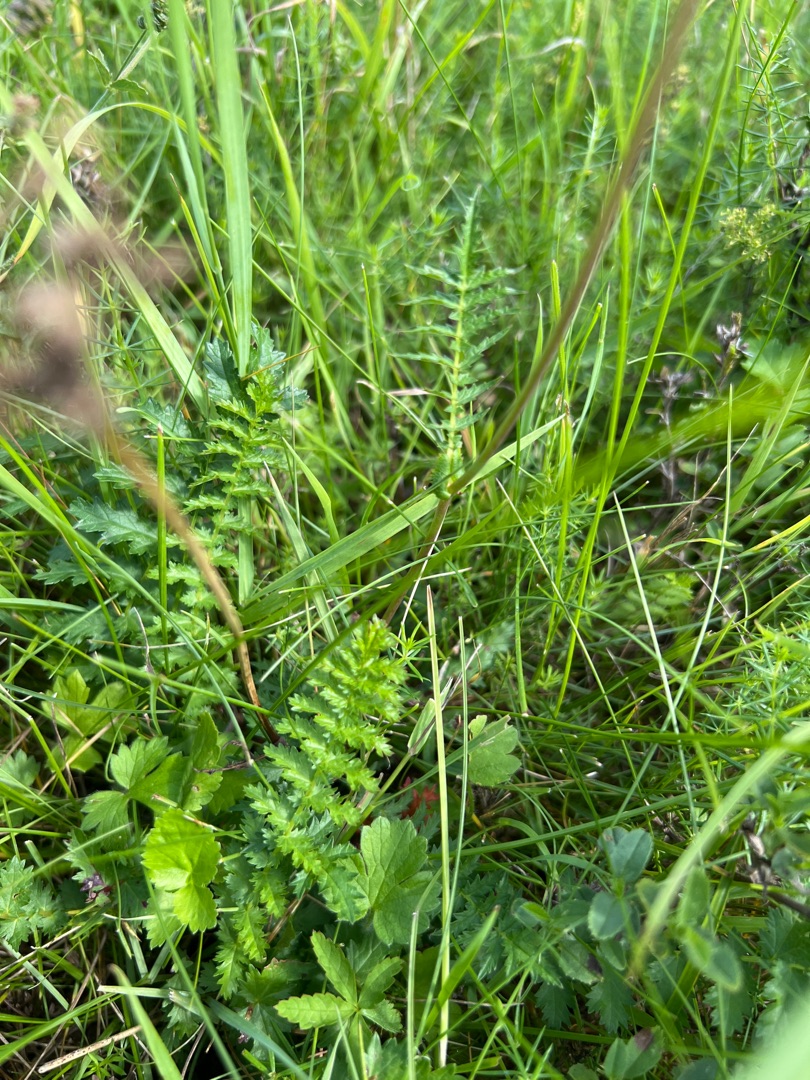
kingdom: Plantae
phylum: Tracheophyta
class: Magnoliopsida
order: Rosales
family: Rosaceae
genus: Filipendula
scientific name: Filipendula vulgaris
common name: Knoldet mjødurt
